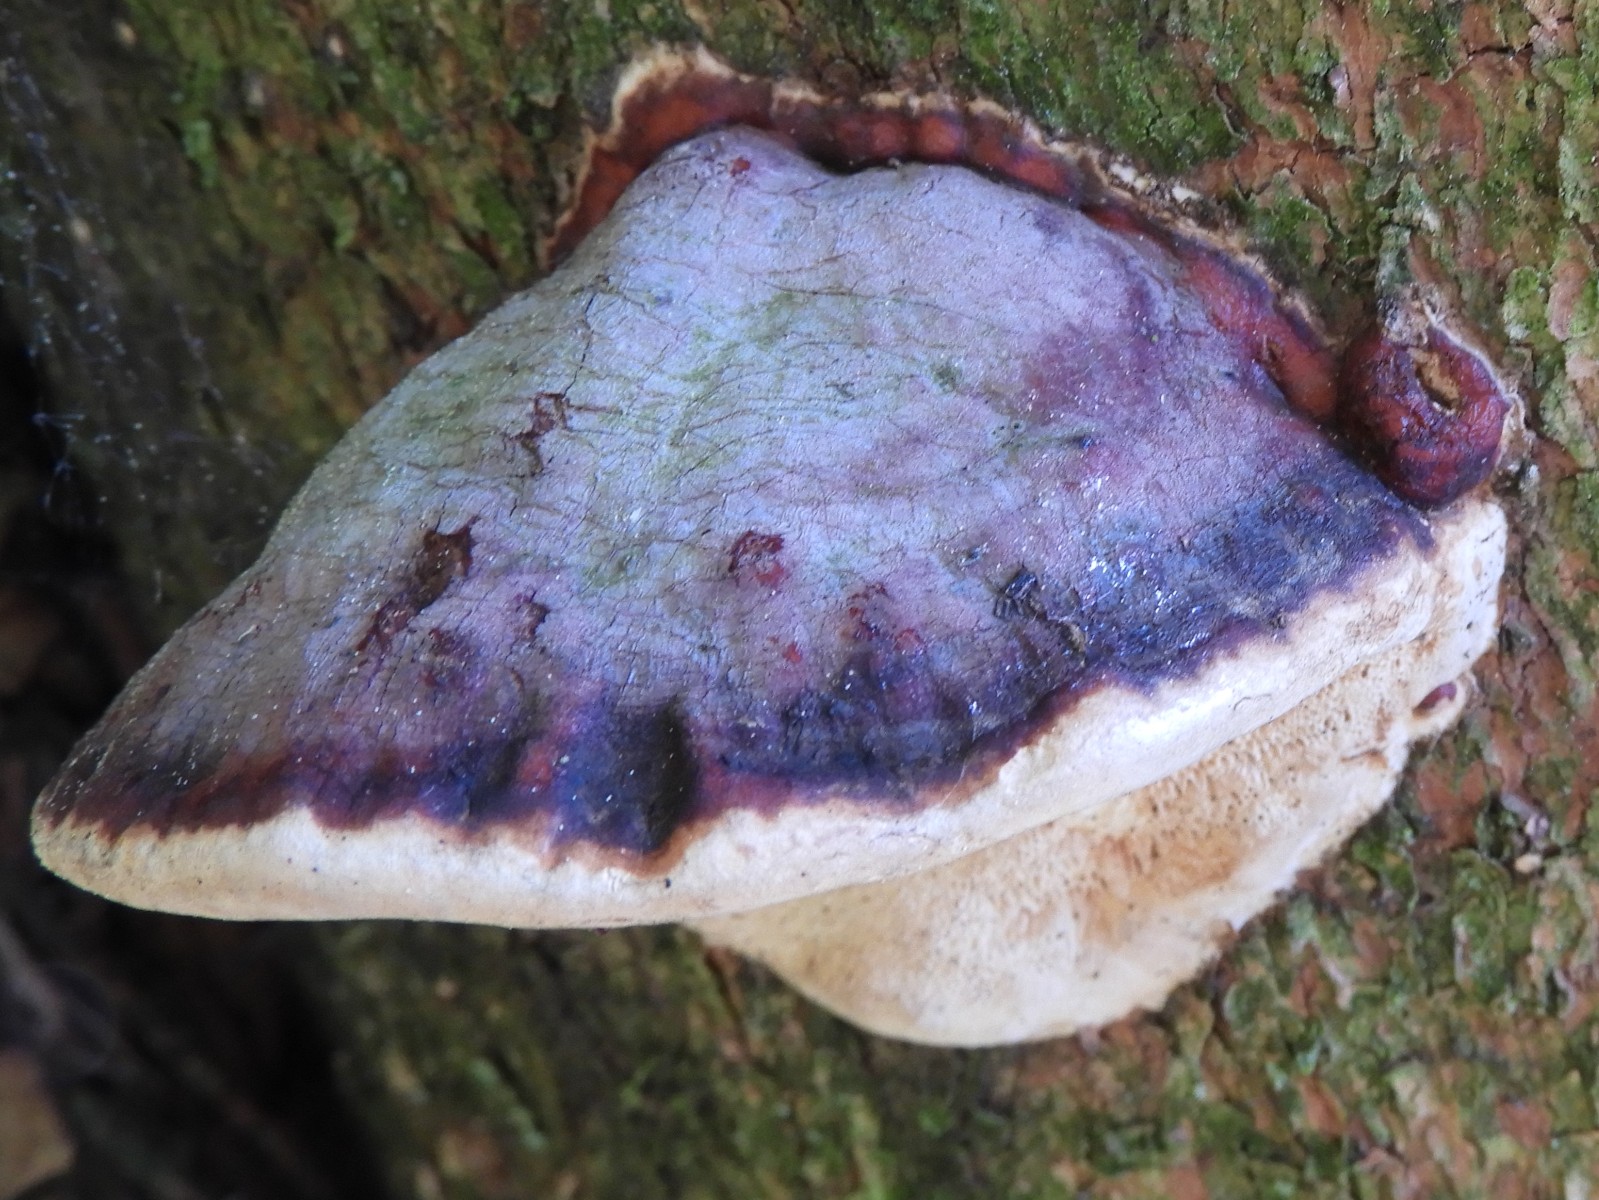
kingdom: Fungi
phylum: Basidiomycota
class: Agaricomycetes
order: Polyporales
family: Fomitopsidaceae
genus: Fomitopsis
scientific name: Fomitopsis pinicola
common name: randbæltet hovporesvamp
